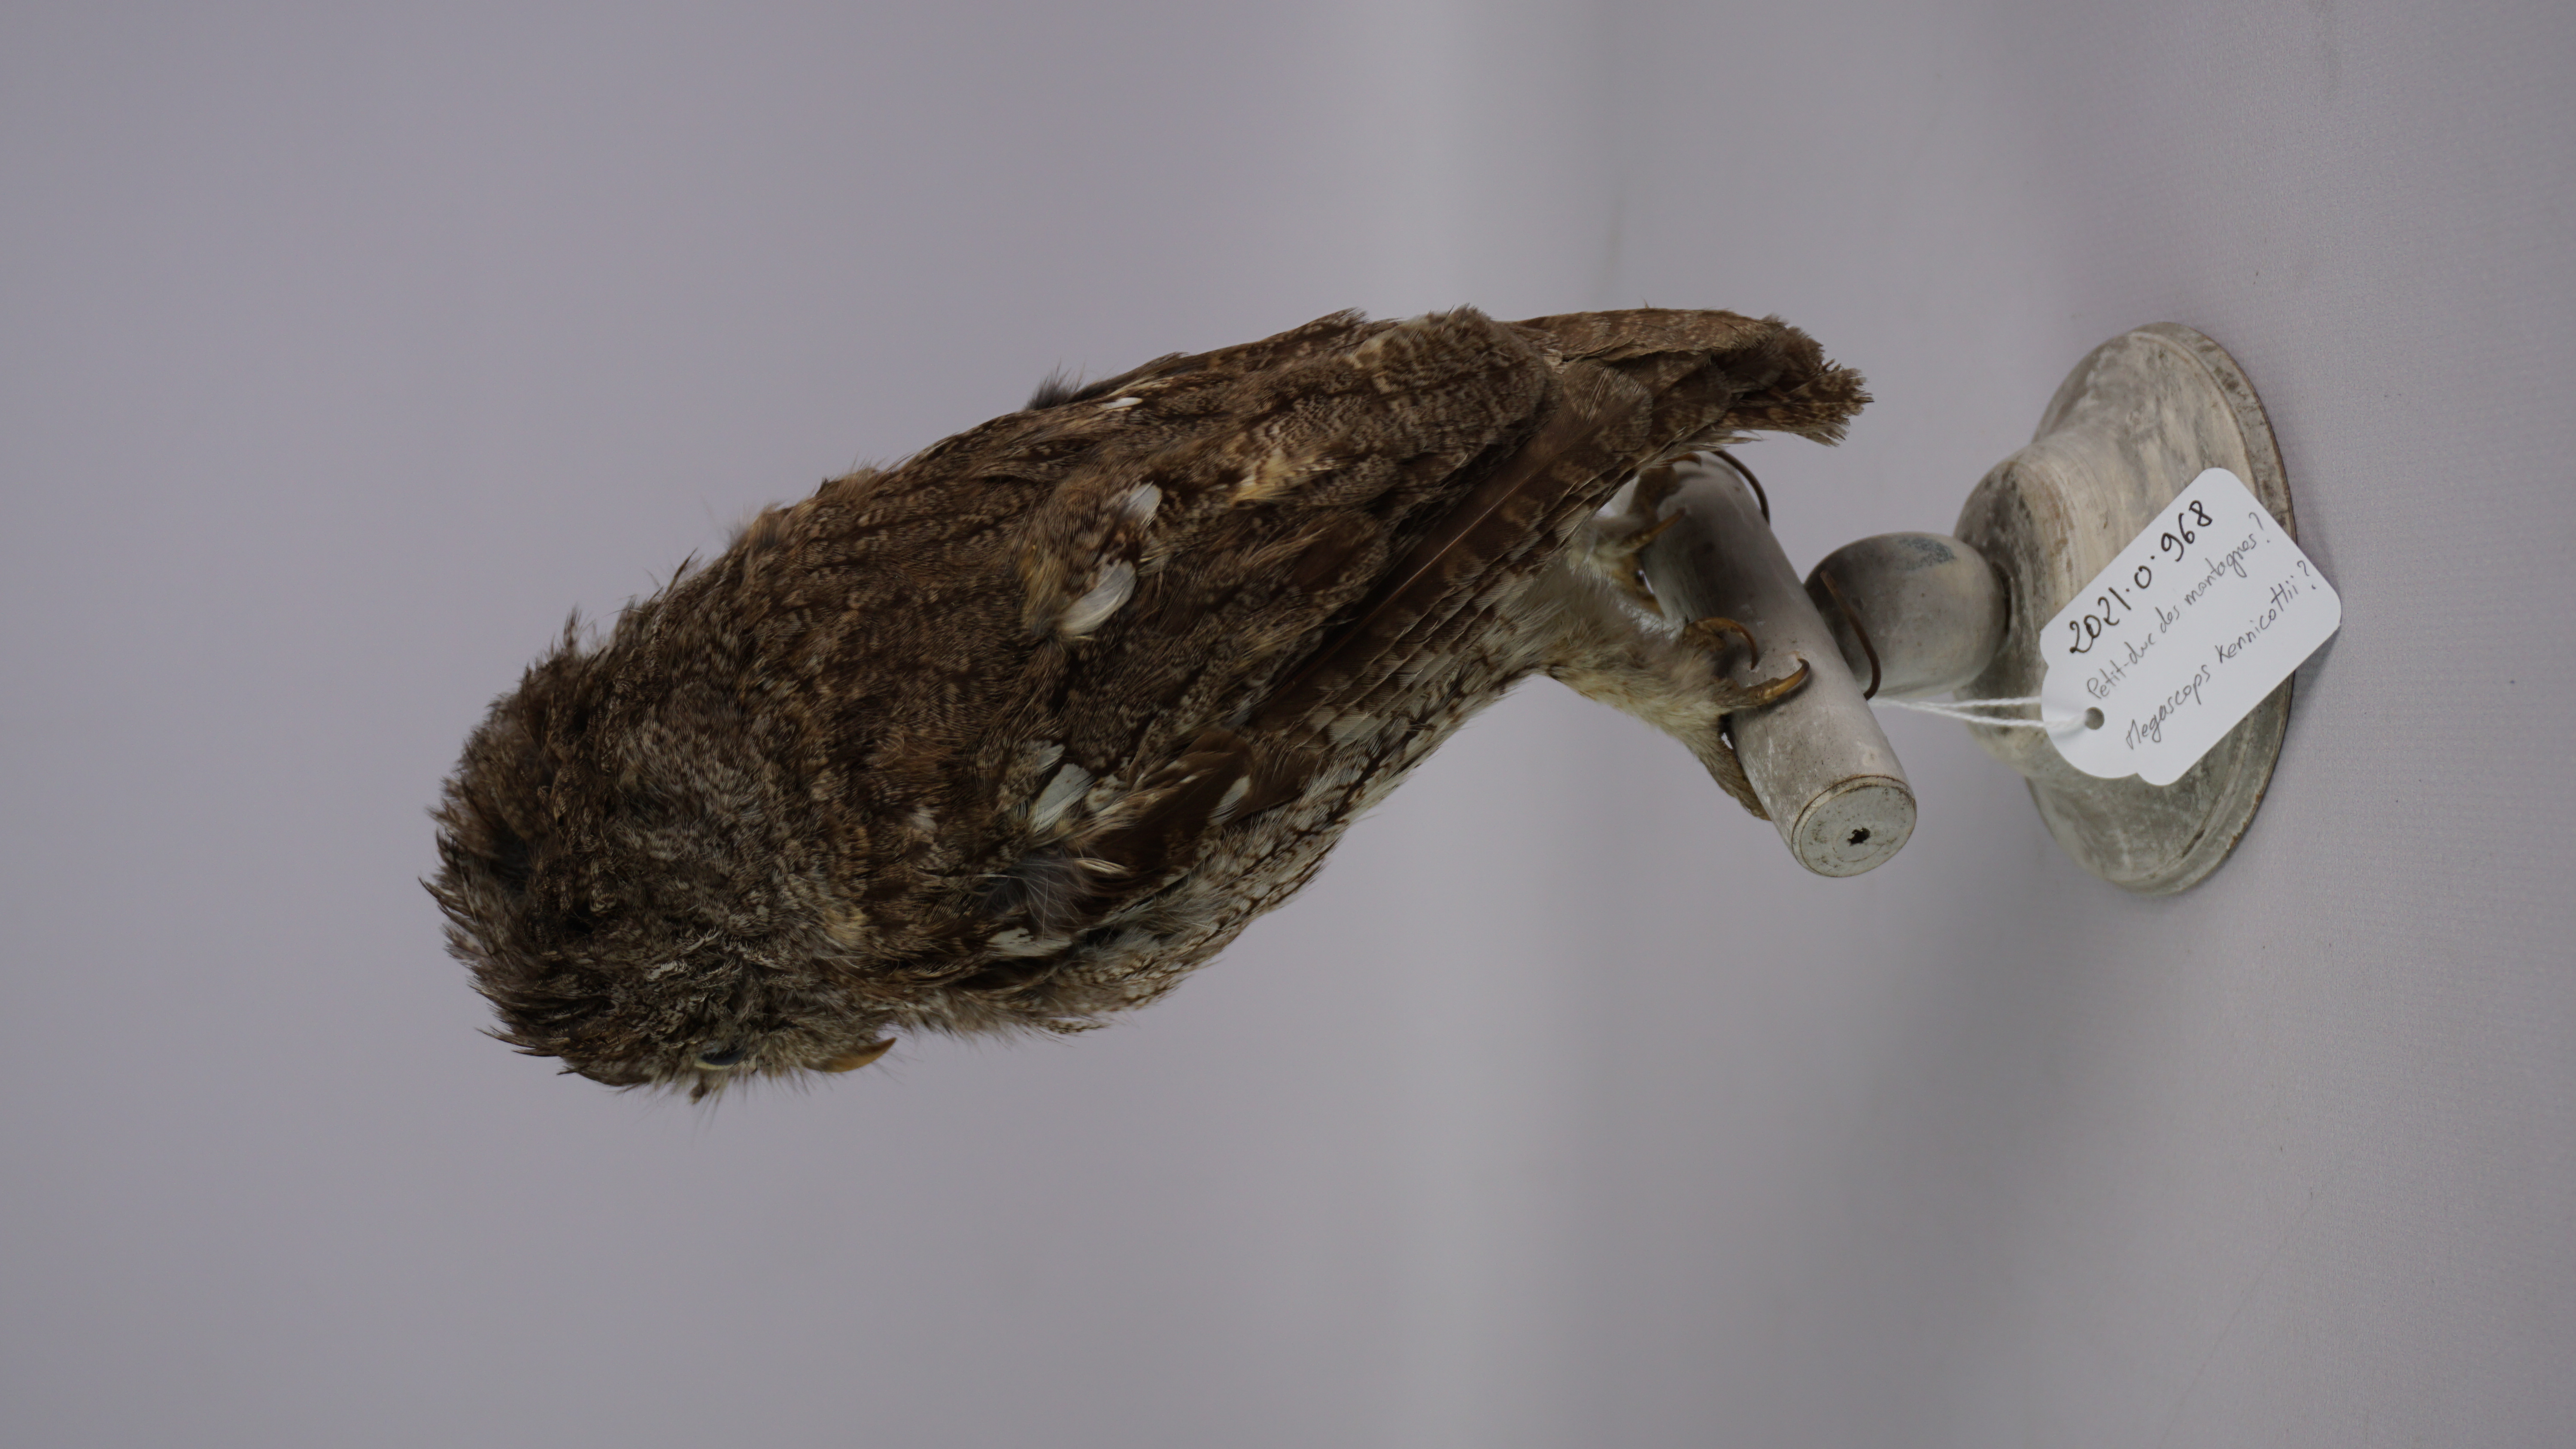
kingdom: Animalia
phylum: Chordata
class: Aves
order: Strigiformes
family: Strigidae
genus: Megascops
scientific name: Megascops kennicottii
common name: Western screech-owl
